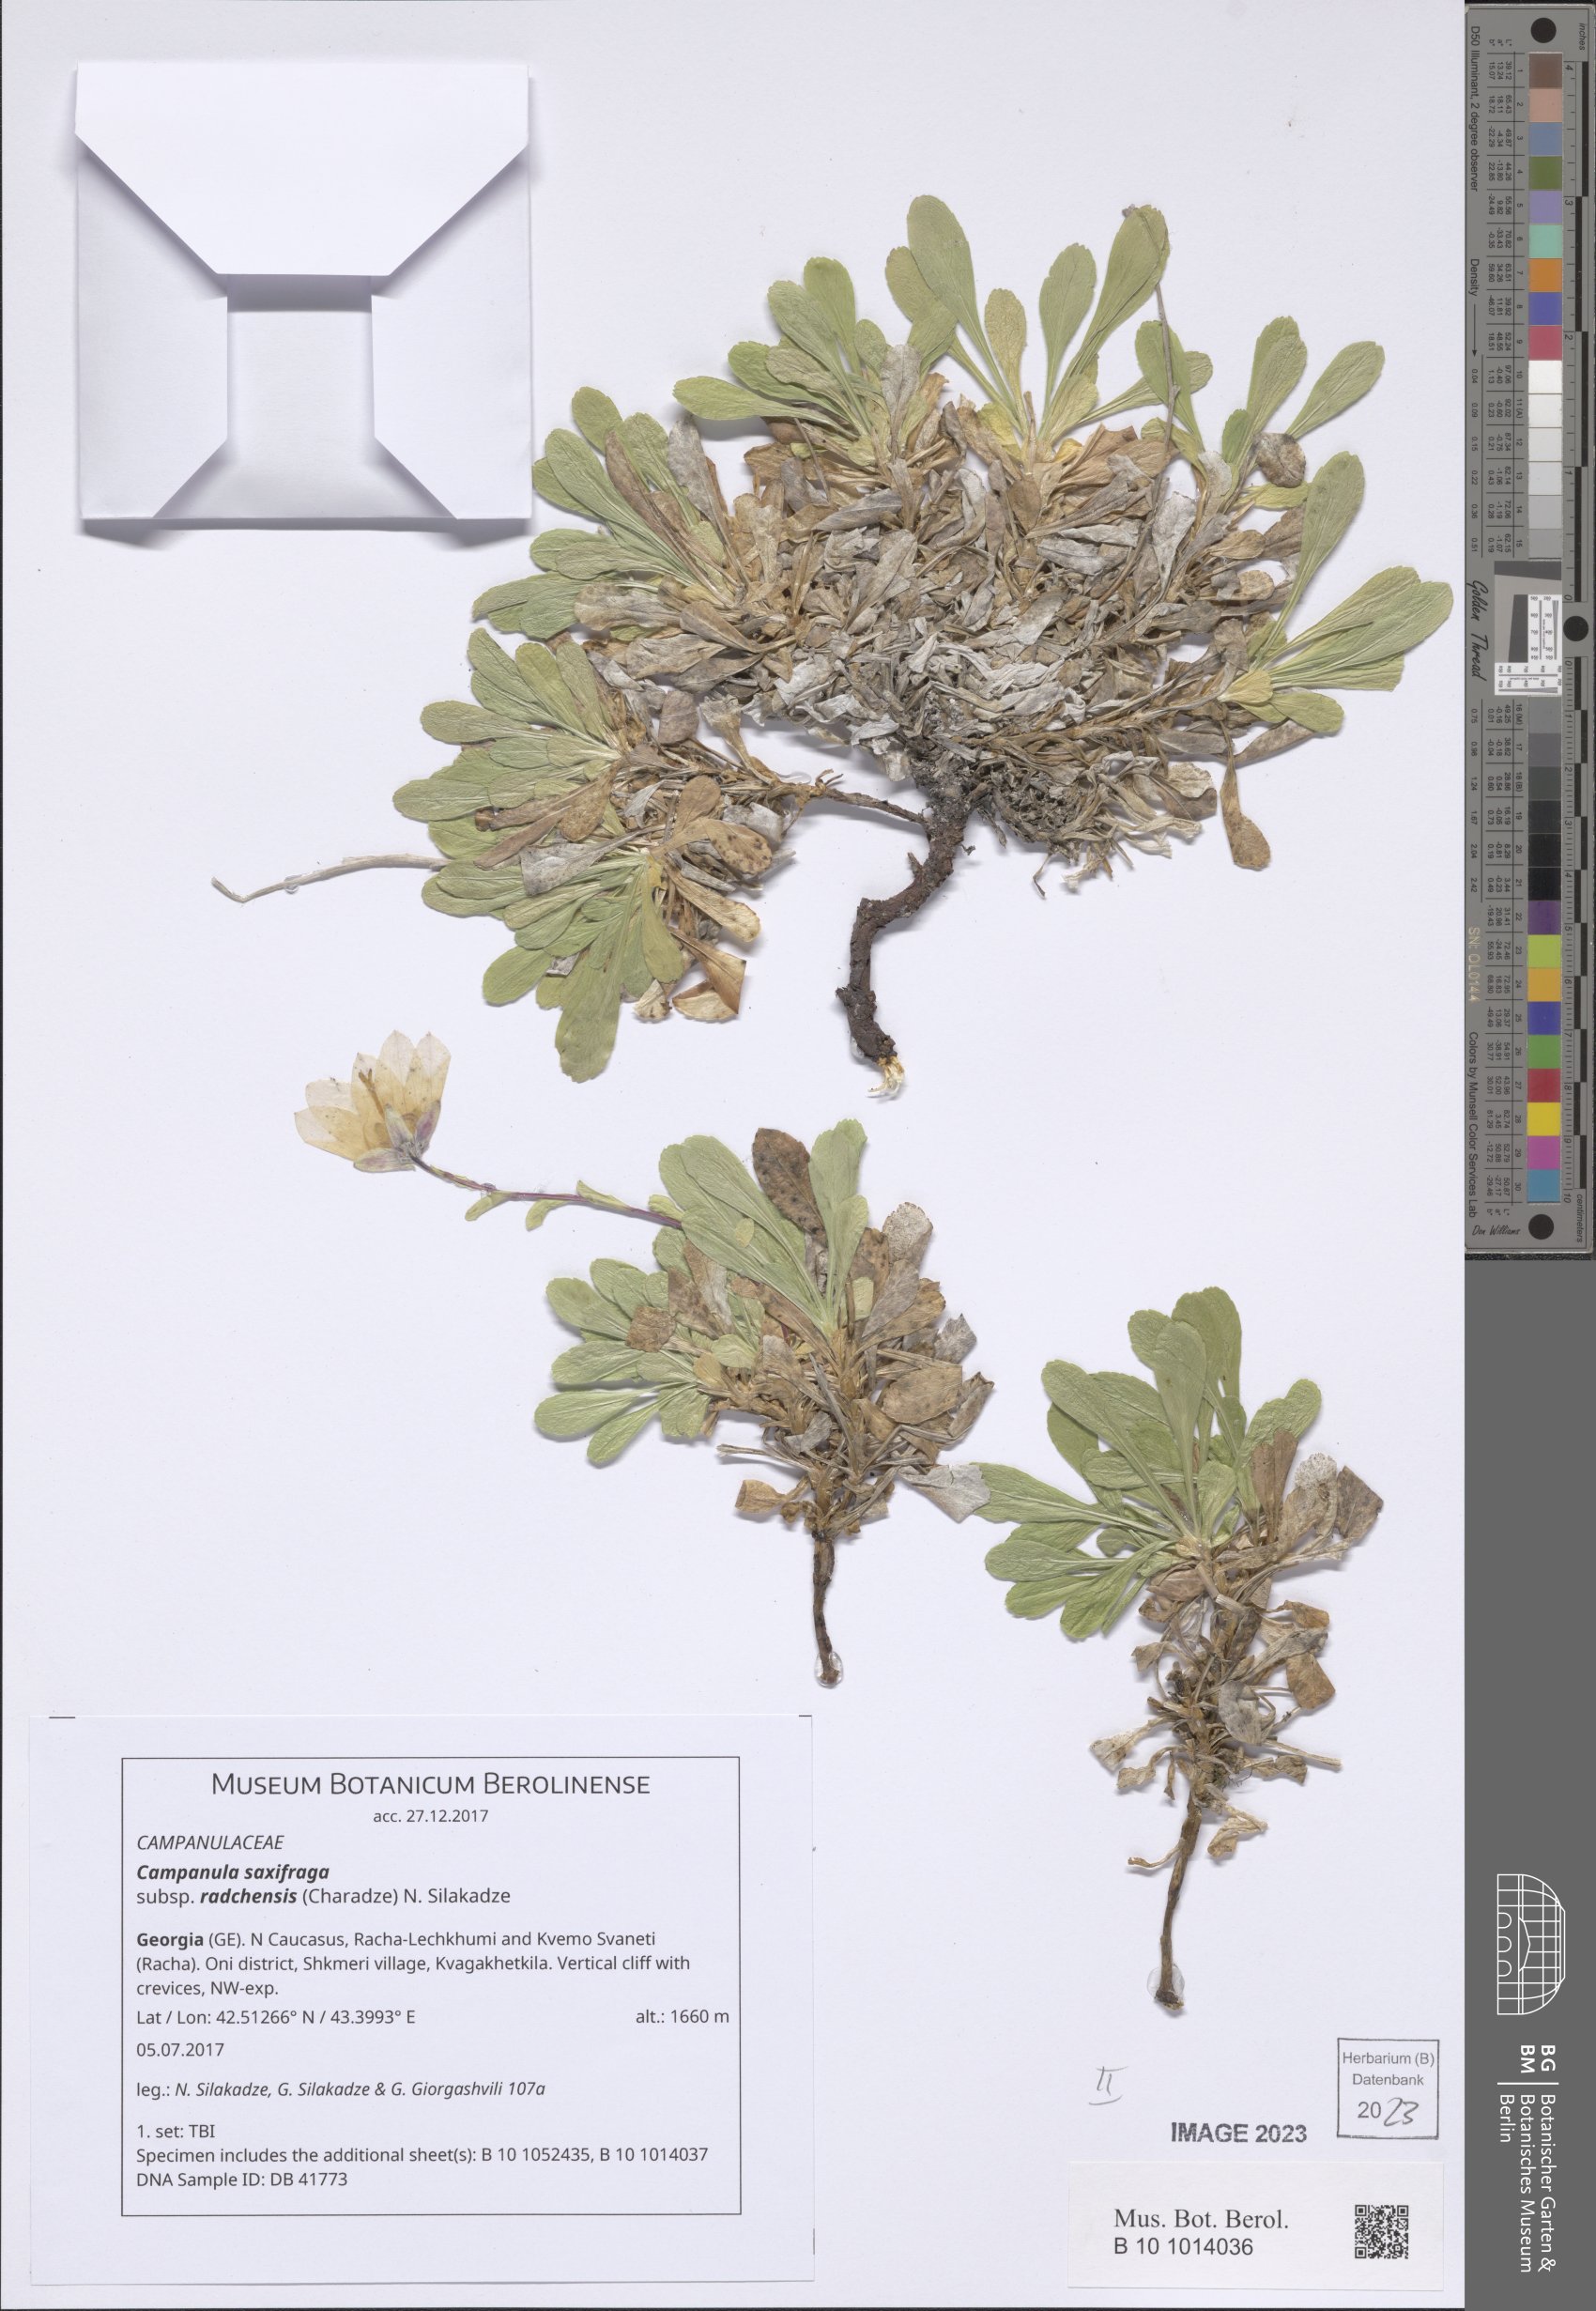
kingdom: Plantae
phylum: Tracheophyta
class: Magnoliopsida
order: Asterales
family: Campanulaceae
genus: Campanula
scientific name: Campanula saxifraga
